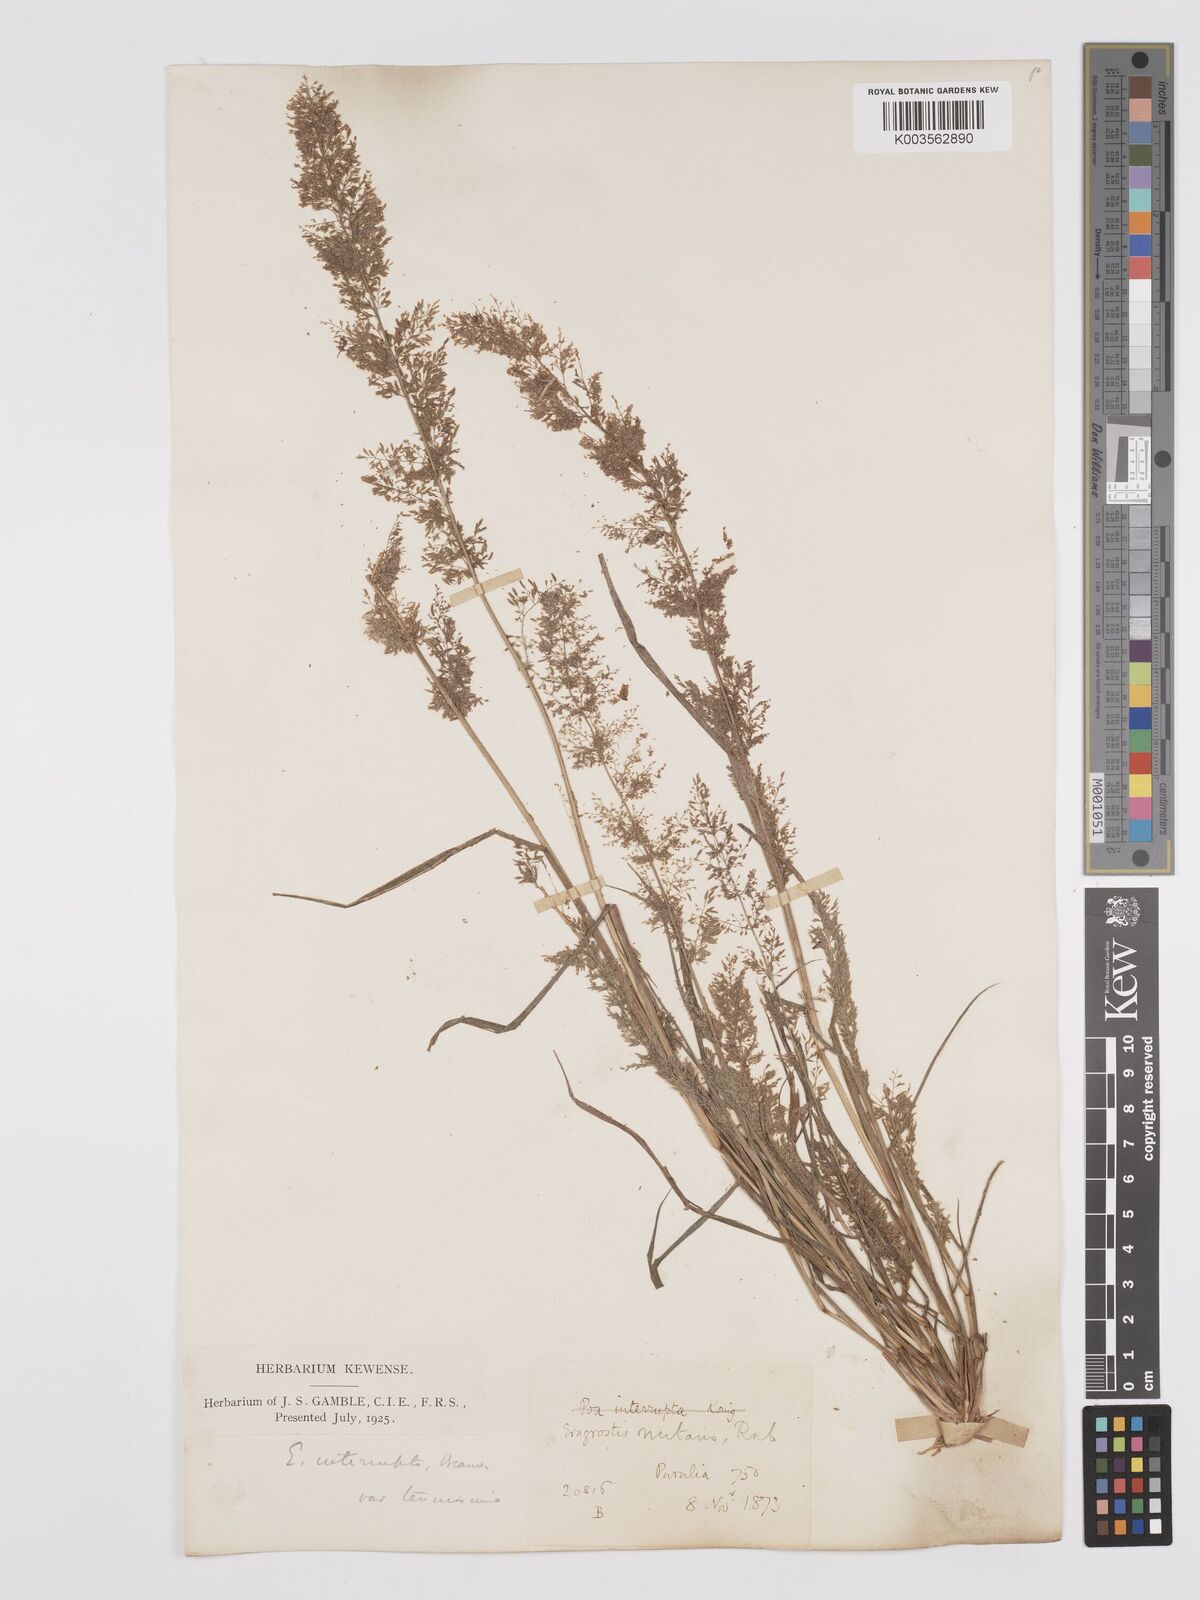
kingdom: Plantae
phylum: Tracheophyta
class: Liliopsida
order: Poales
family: Poaceae
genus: Eragrostis
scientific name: Eragrostis japonica
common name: Pond lovegrass
